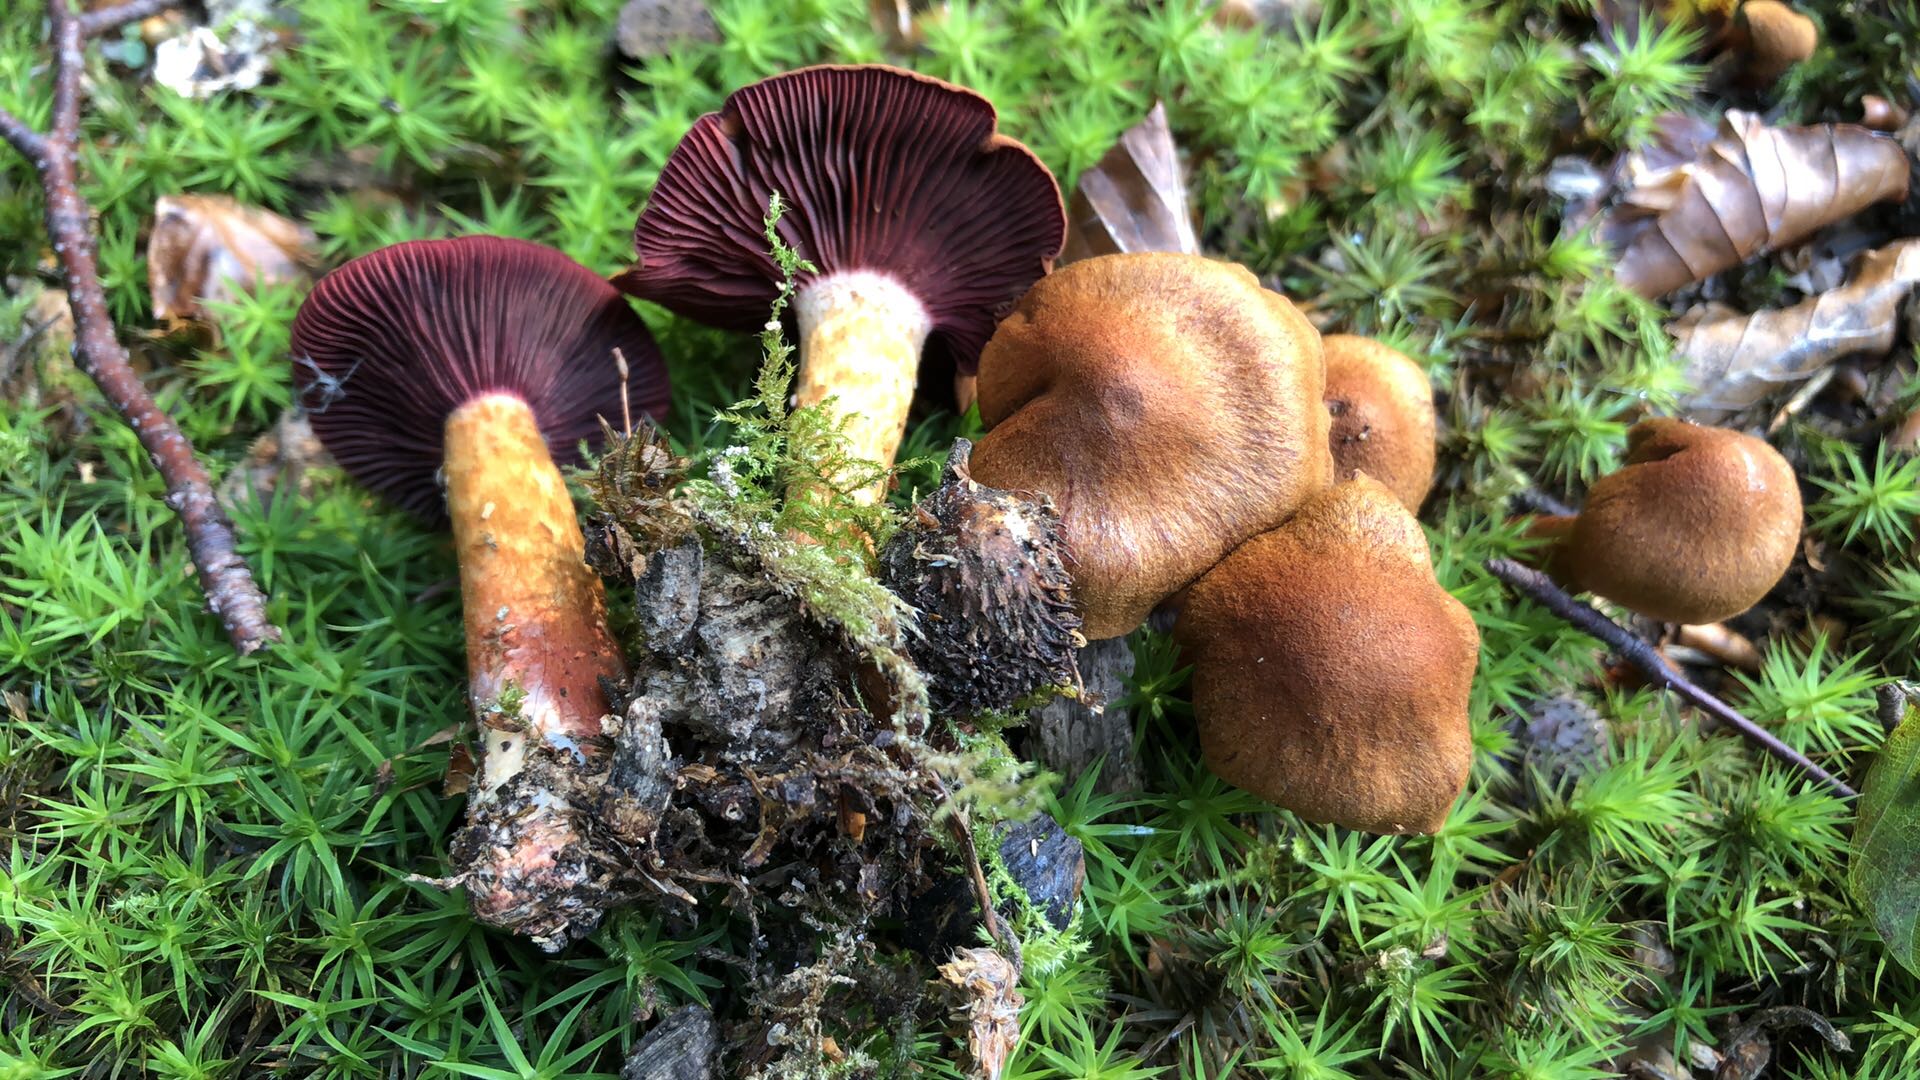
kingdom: Fungi
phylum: Basidiomycota
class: Agaricomycetes
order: Agaricales
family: Cortinariaceae
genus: Cortinarius
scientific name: Cortinarius purpureus
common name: brunrød slørhat
